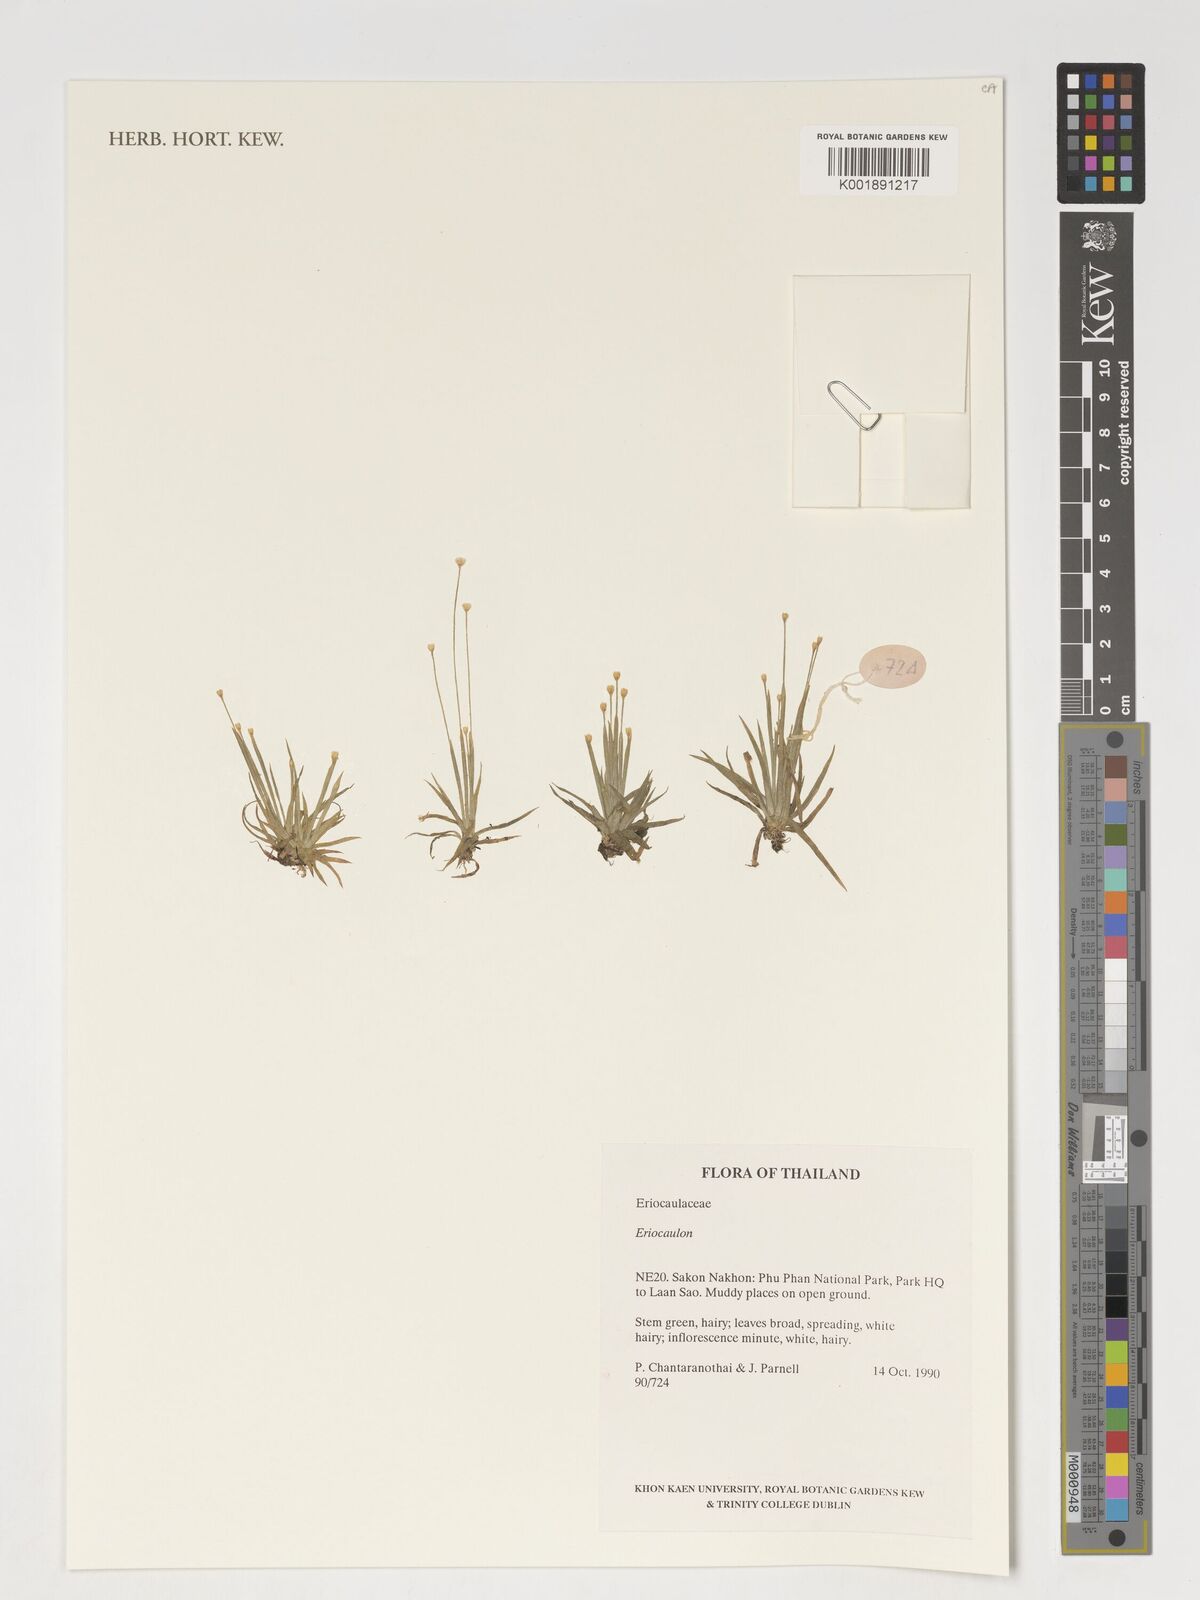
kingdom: Plantae
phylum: Tracheophyta
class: Liliopsida
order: Poales
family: Eriocaulaceae
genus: Eriocaulon
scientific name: Eriocaulon
